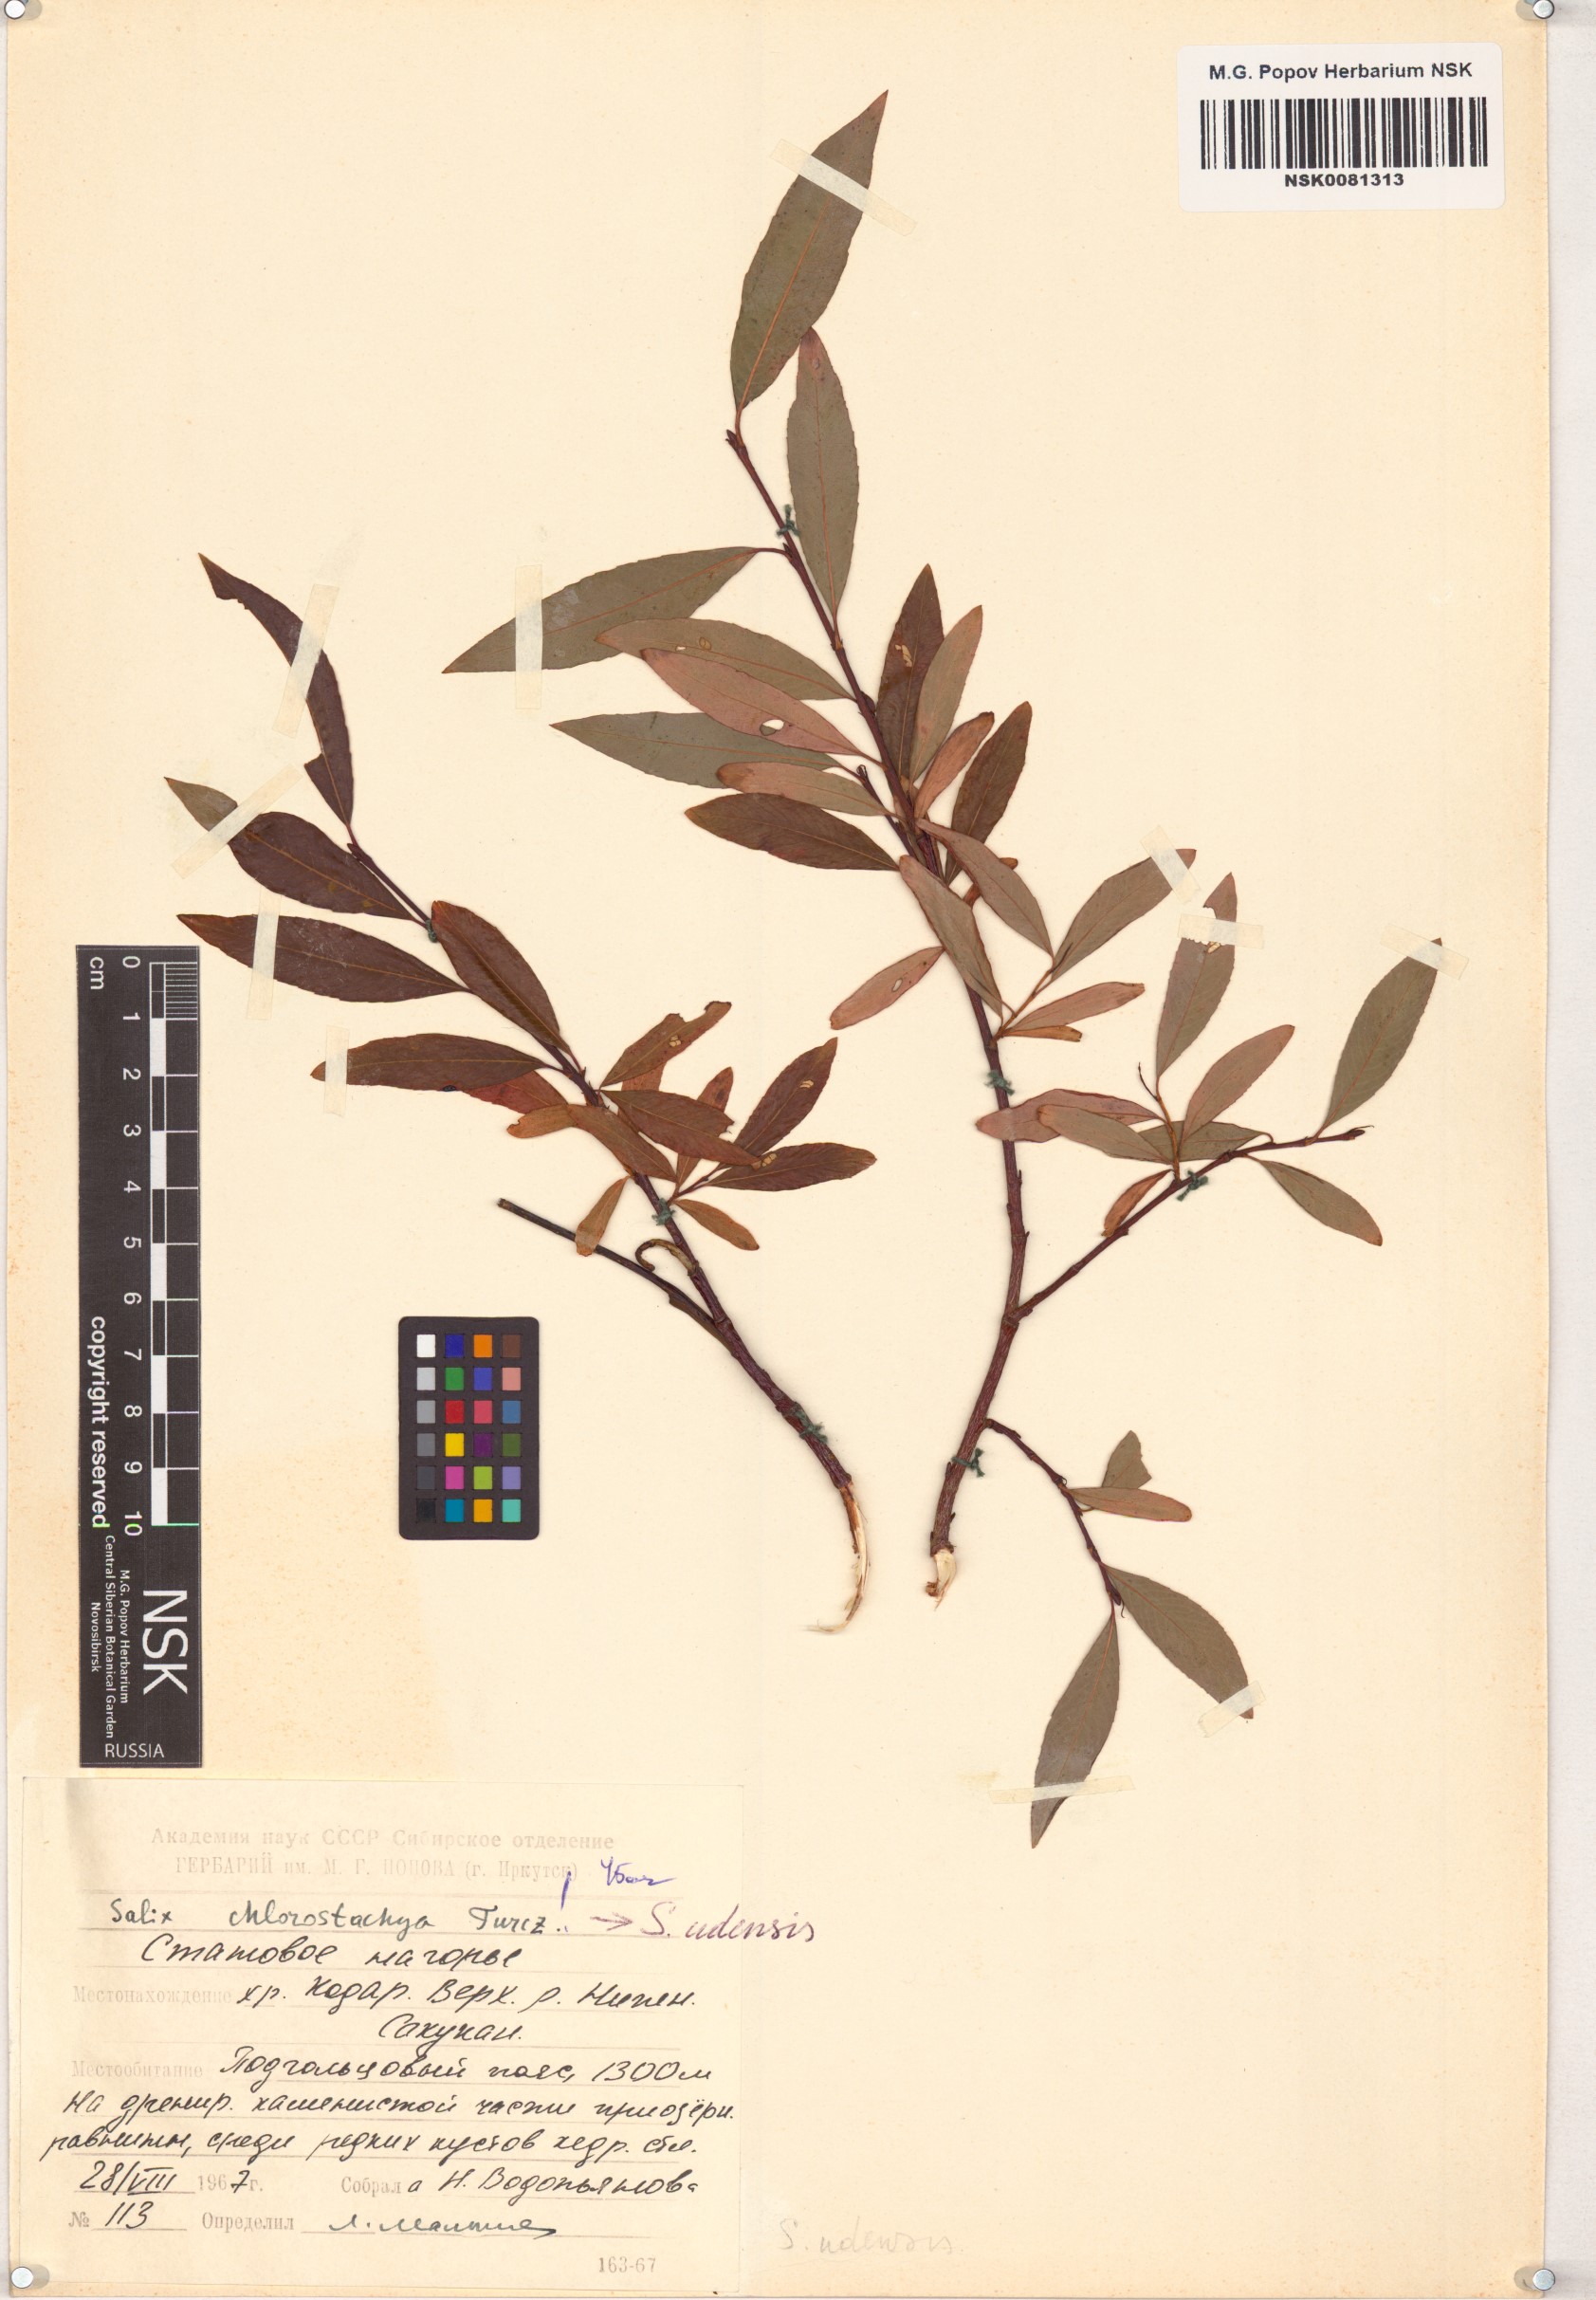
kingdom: Plantae
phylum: Tracheophyta
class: Magnoliopsida
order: Malpighiales
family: Salicaceae
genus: Salix
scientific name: Salix rhamnifolia
